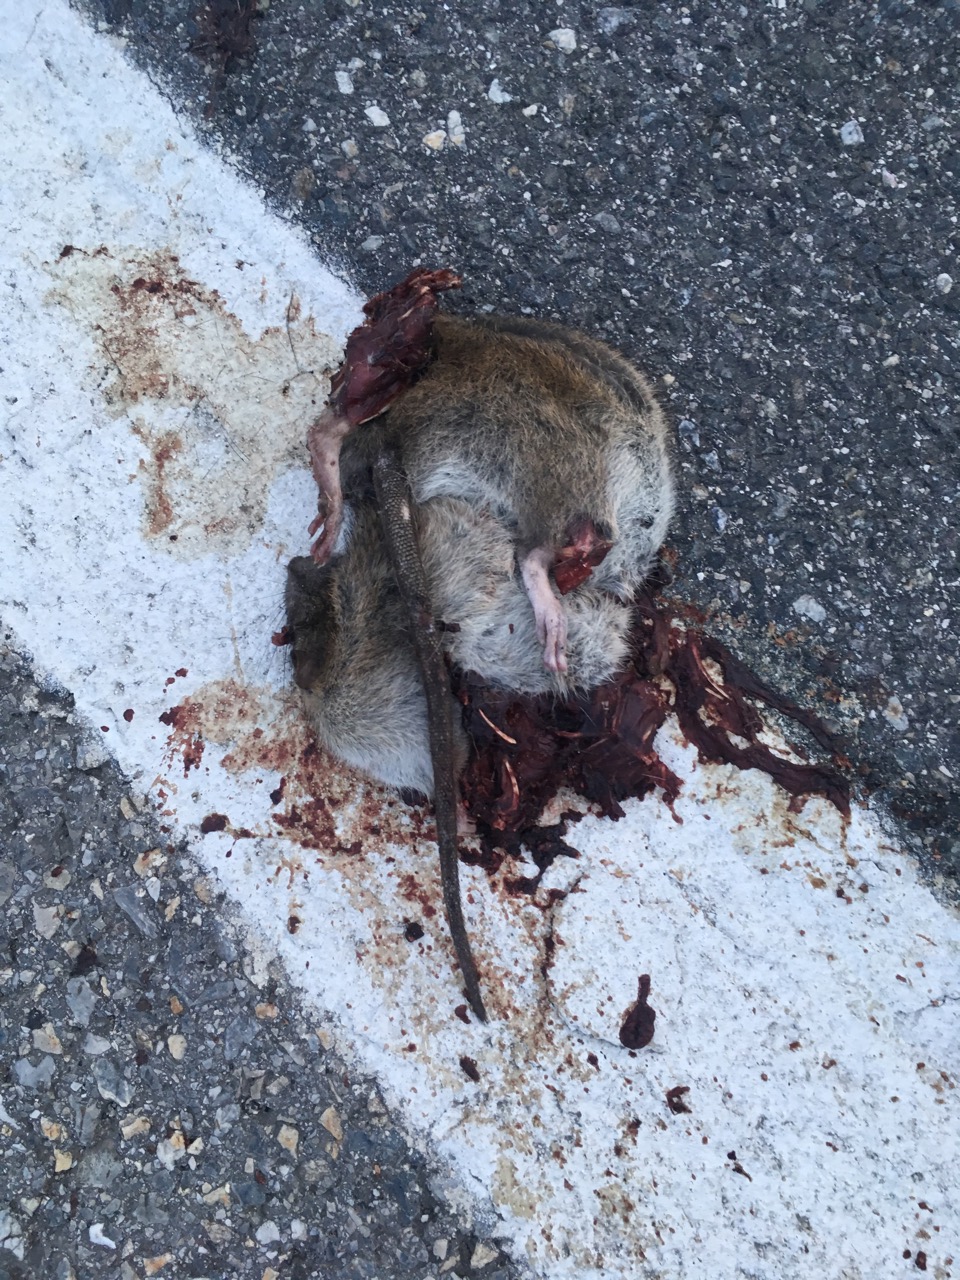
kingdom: Animalia
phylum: Chordata
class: Mammalia
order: Rodentia
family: Muridae
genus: Rattus
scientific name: Rattus
